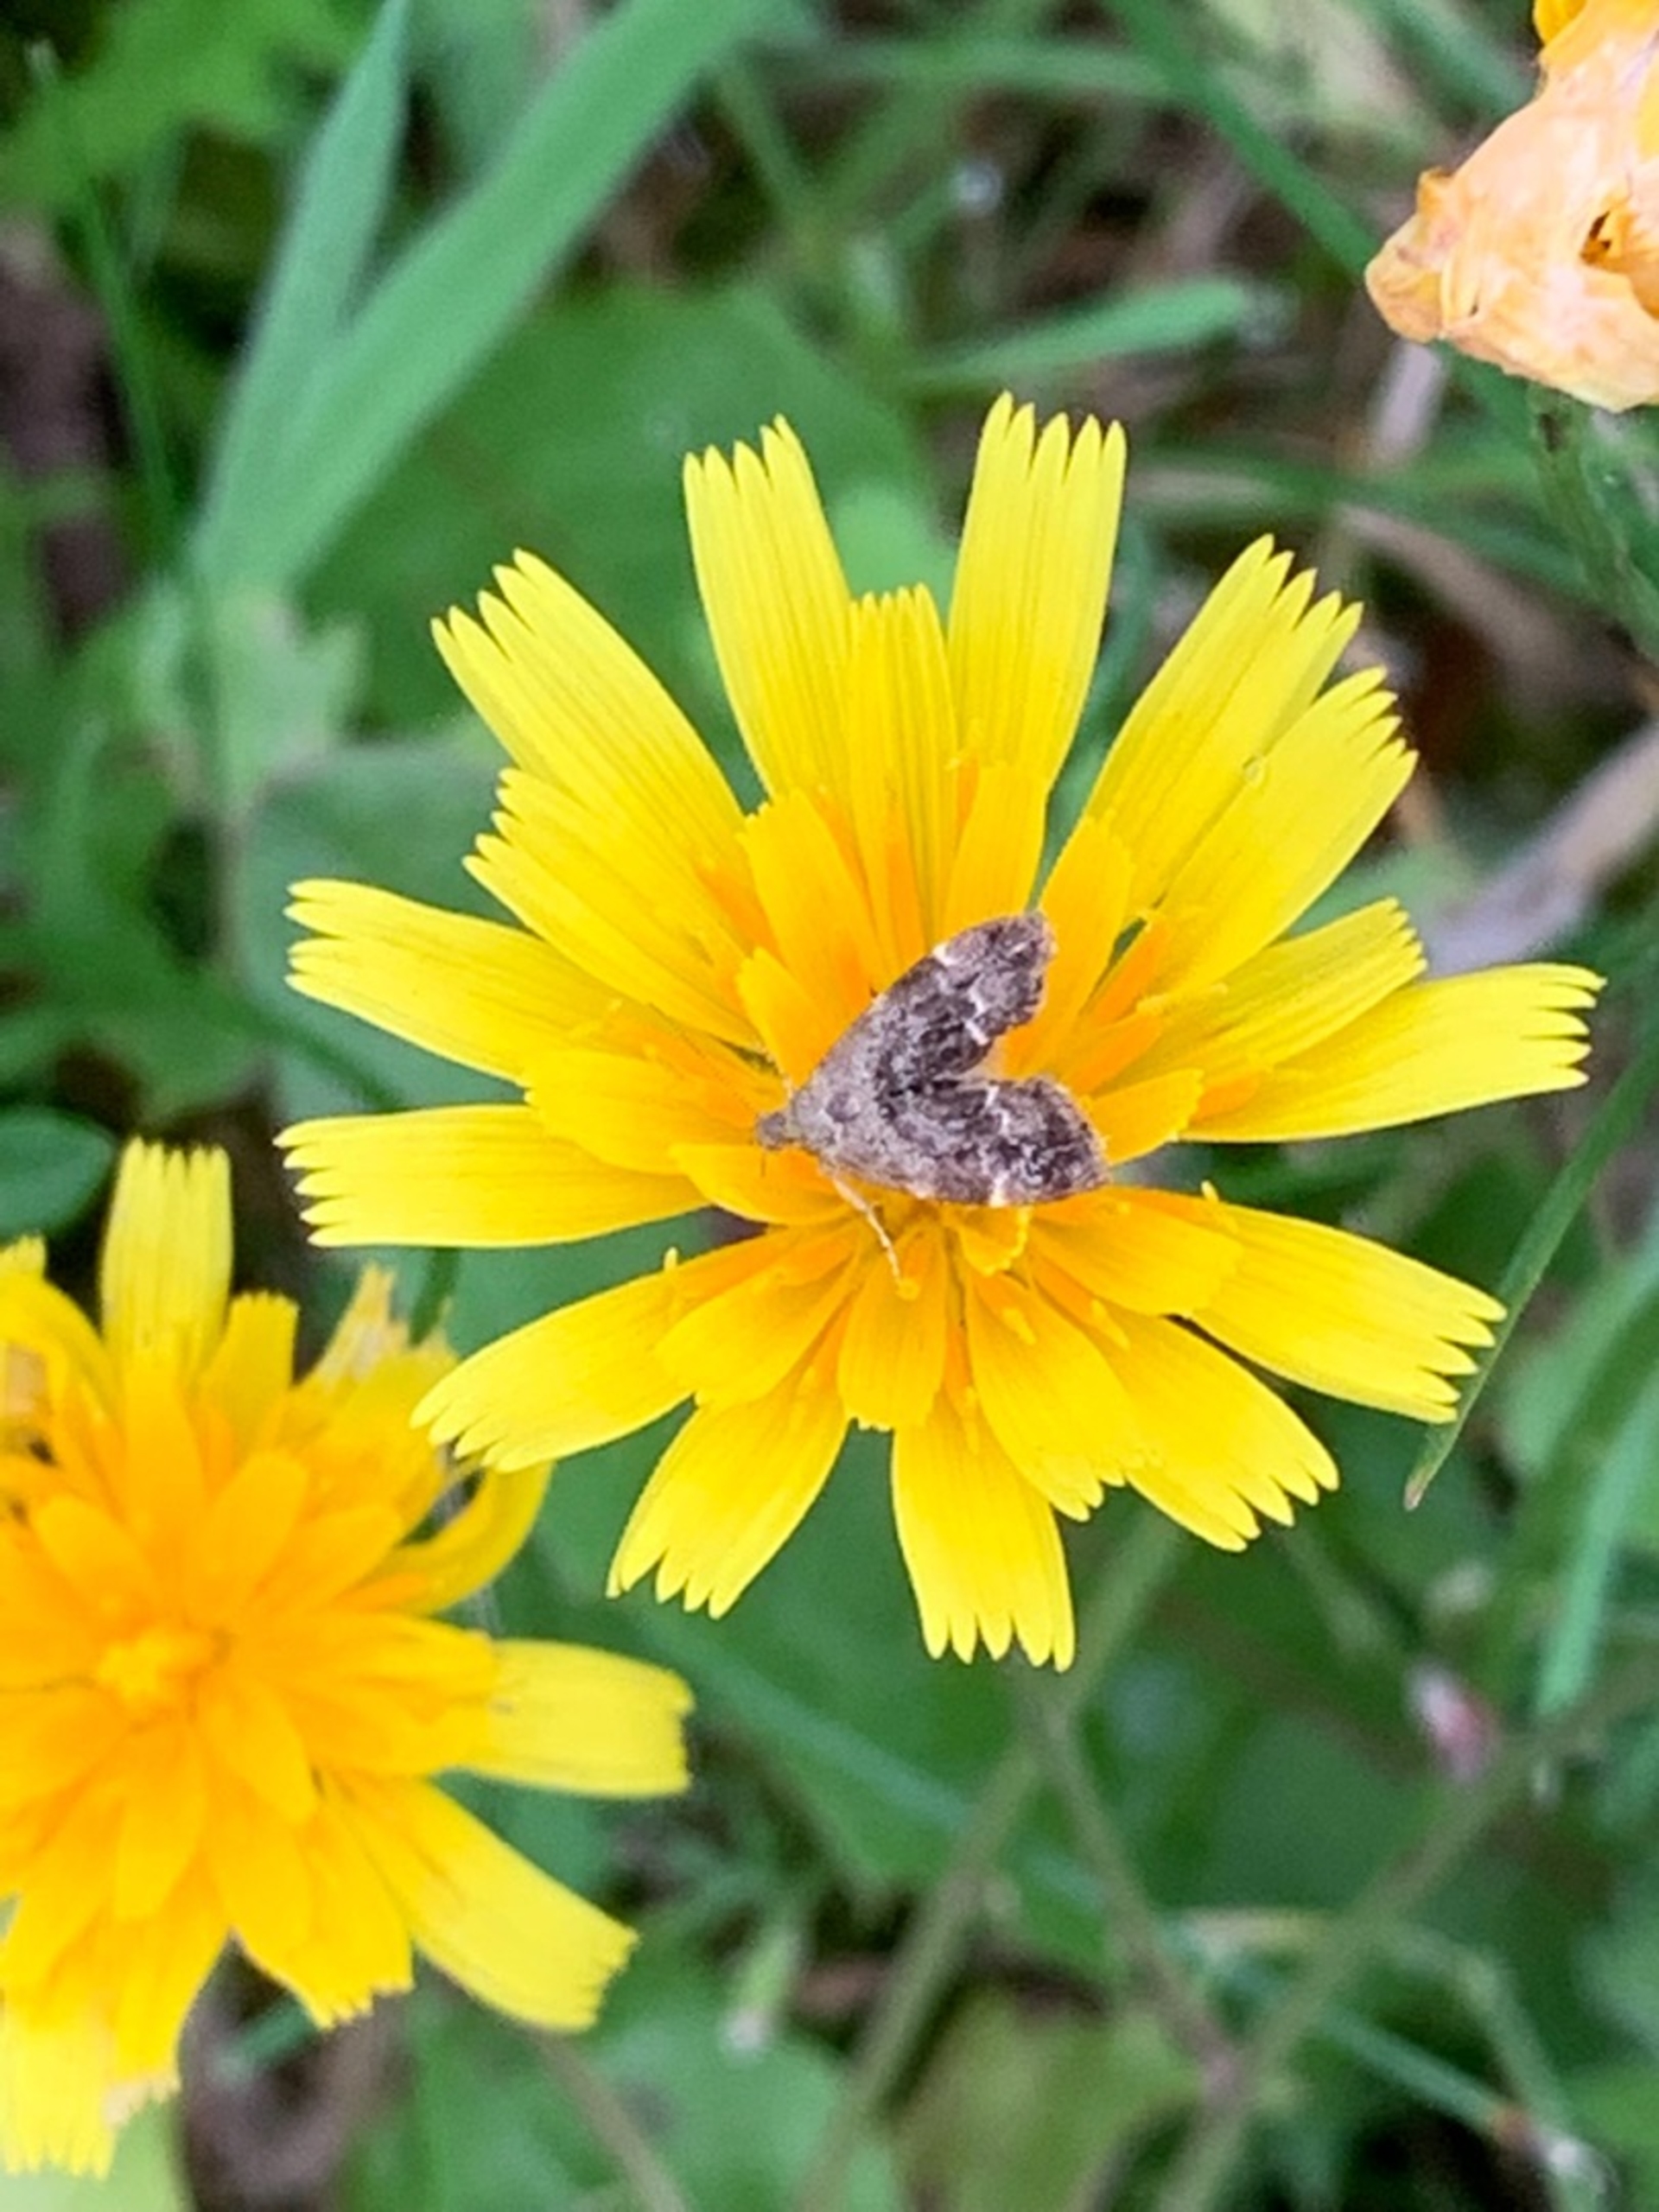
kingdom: Animalia
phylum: Arthropoda
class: Insecta
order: Lepidoptera
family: Choreutidae
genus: Anthophila
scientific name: Anthophila fabriciana
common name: Bredvinget nældevikler
